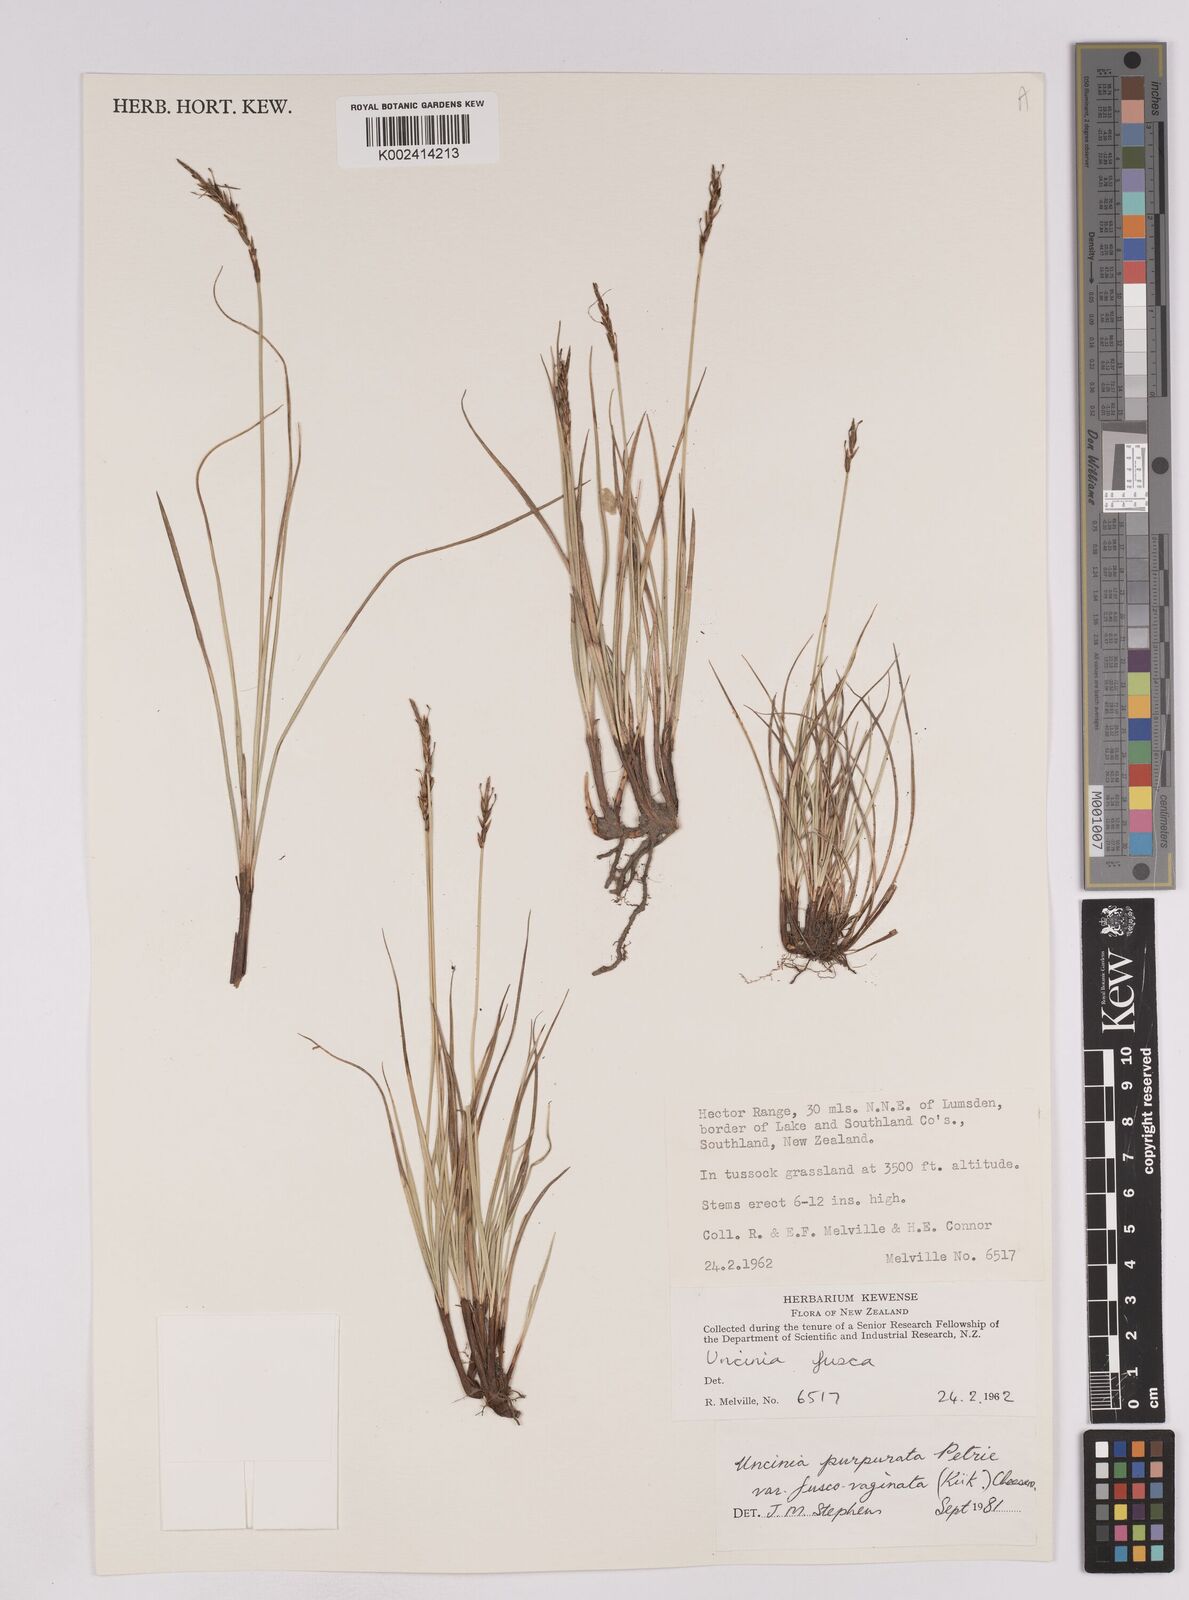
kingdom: Plantae
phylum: Tracheophyta
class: Liliopsida
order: Poales
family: Cyperaceae
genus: Carex
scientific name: Carex penalpina
